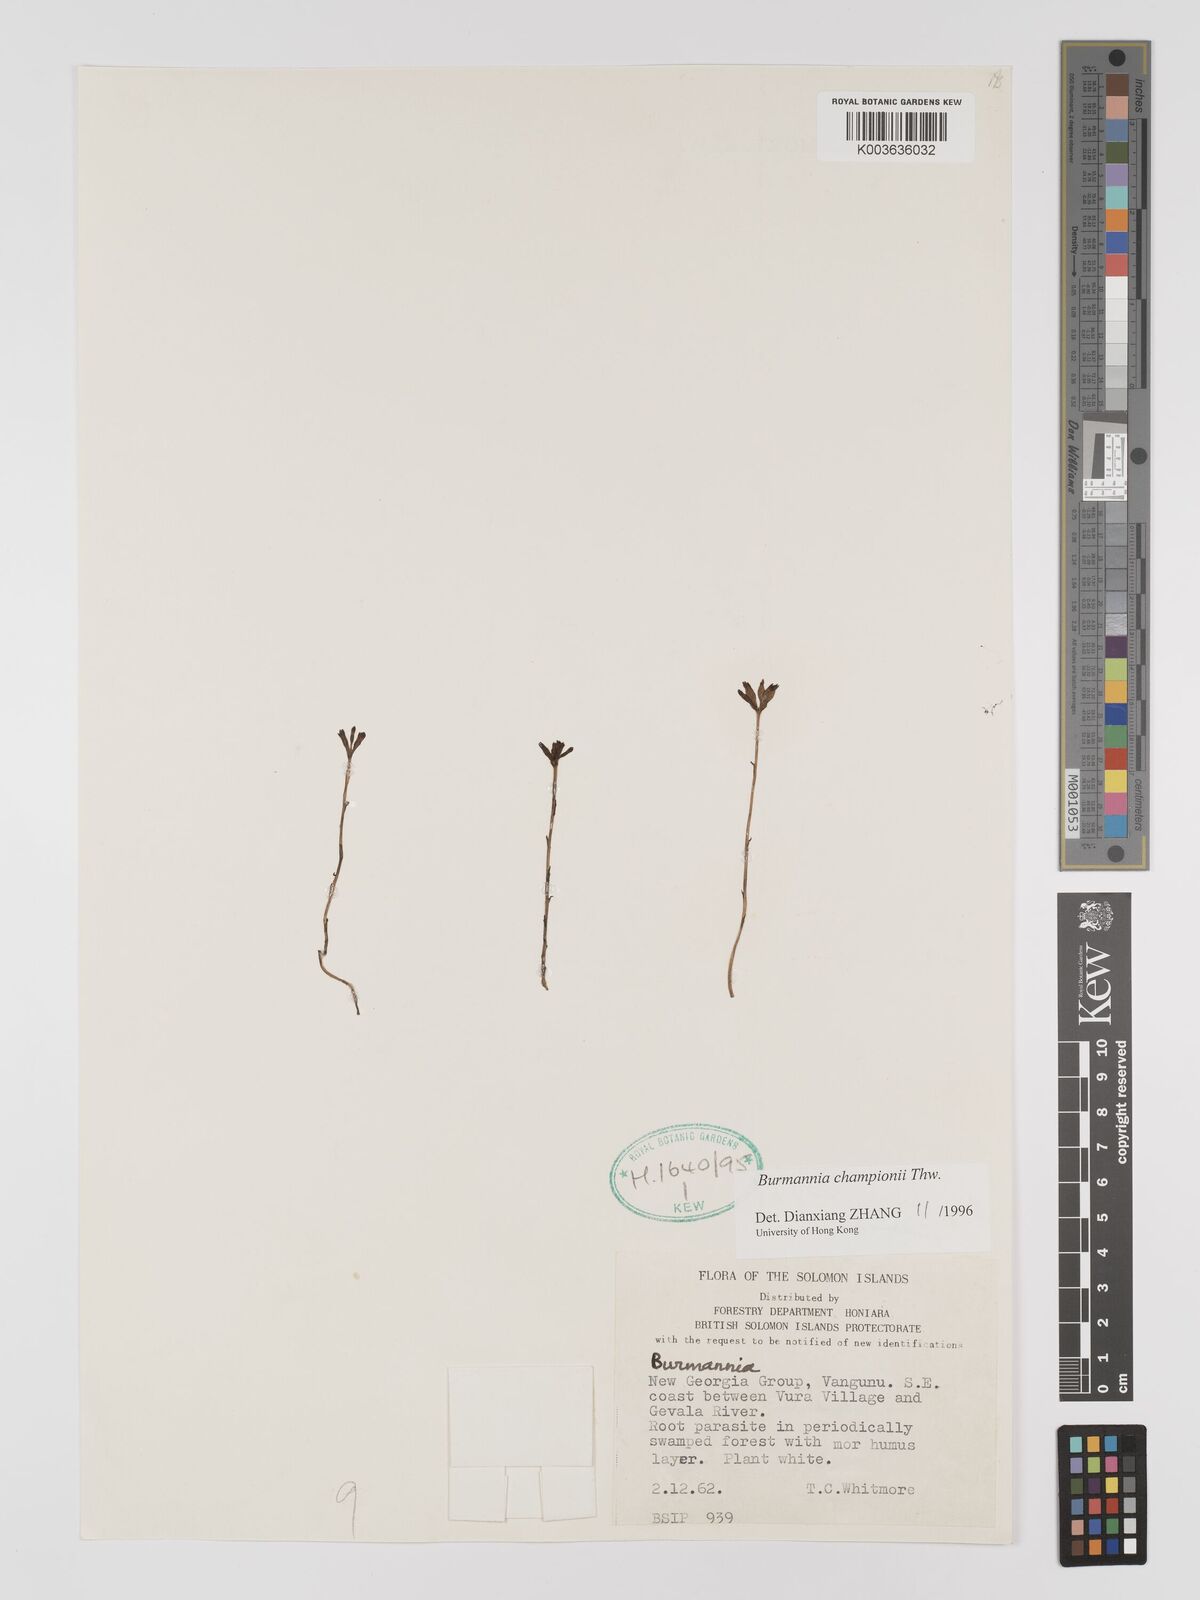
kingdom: Plantae
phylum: Tracheophyta
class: Liliopsida
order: Dioscoreales
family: Burmanniaceae
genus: Burmannia
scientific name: Burmannia championii
